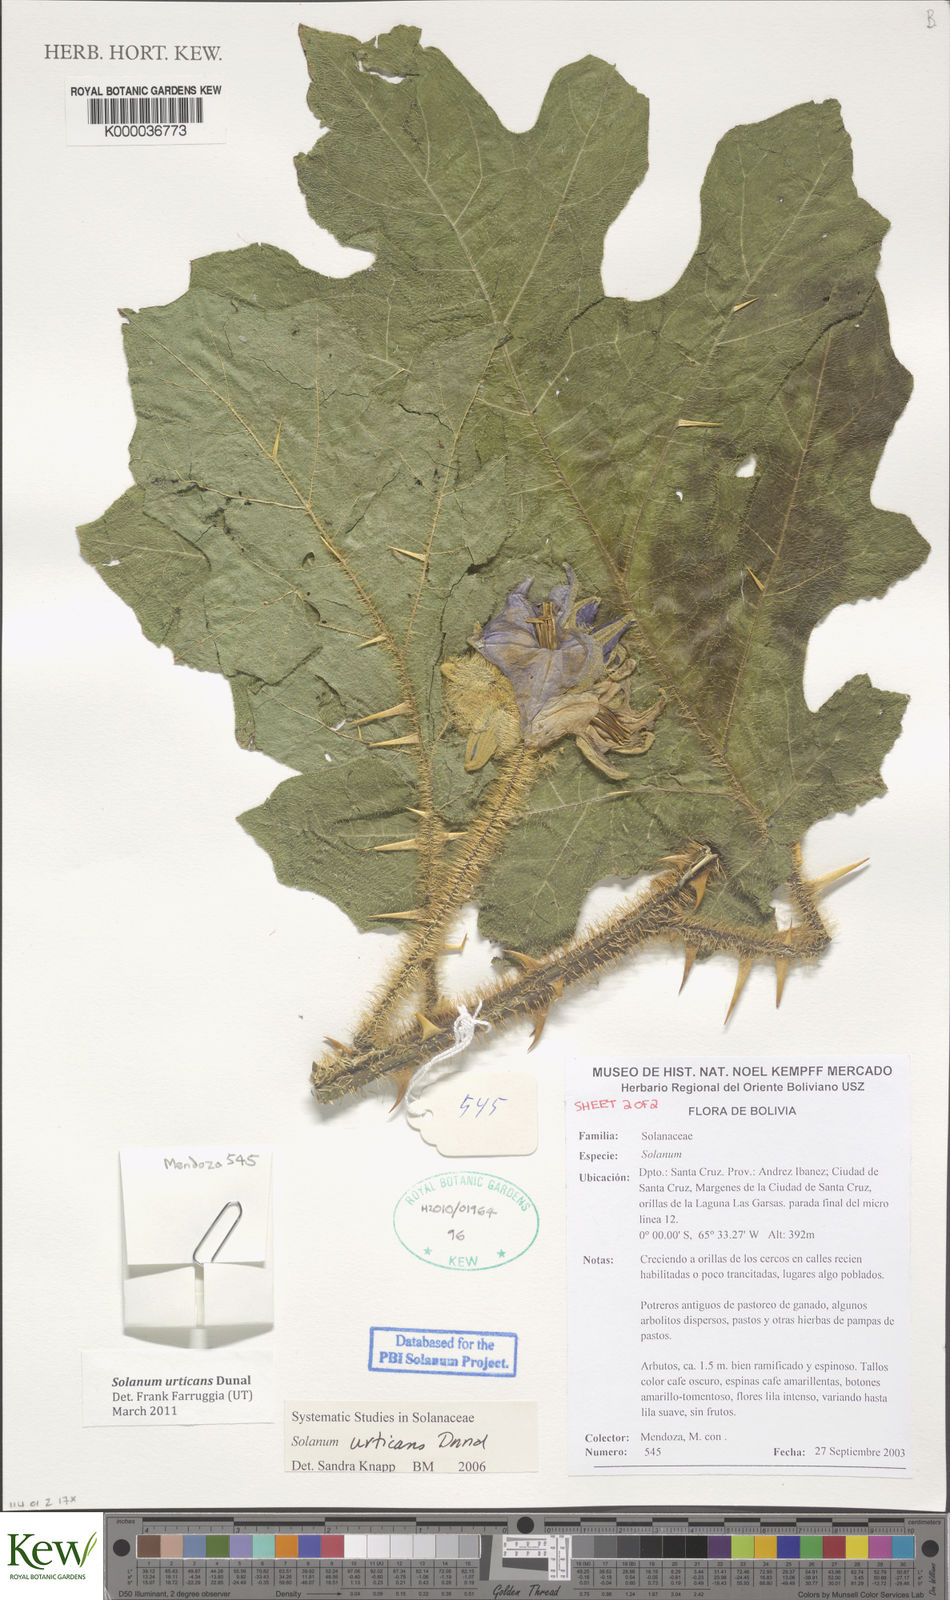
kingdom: Plantae
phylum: Tracheophyta
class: Magnoliopsida
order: Solanales
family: Solanaceae
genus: Solanum
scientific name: Solanum urticans
